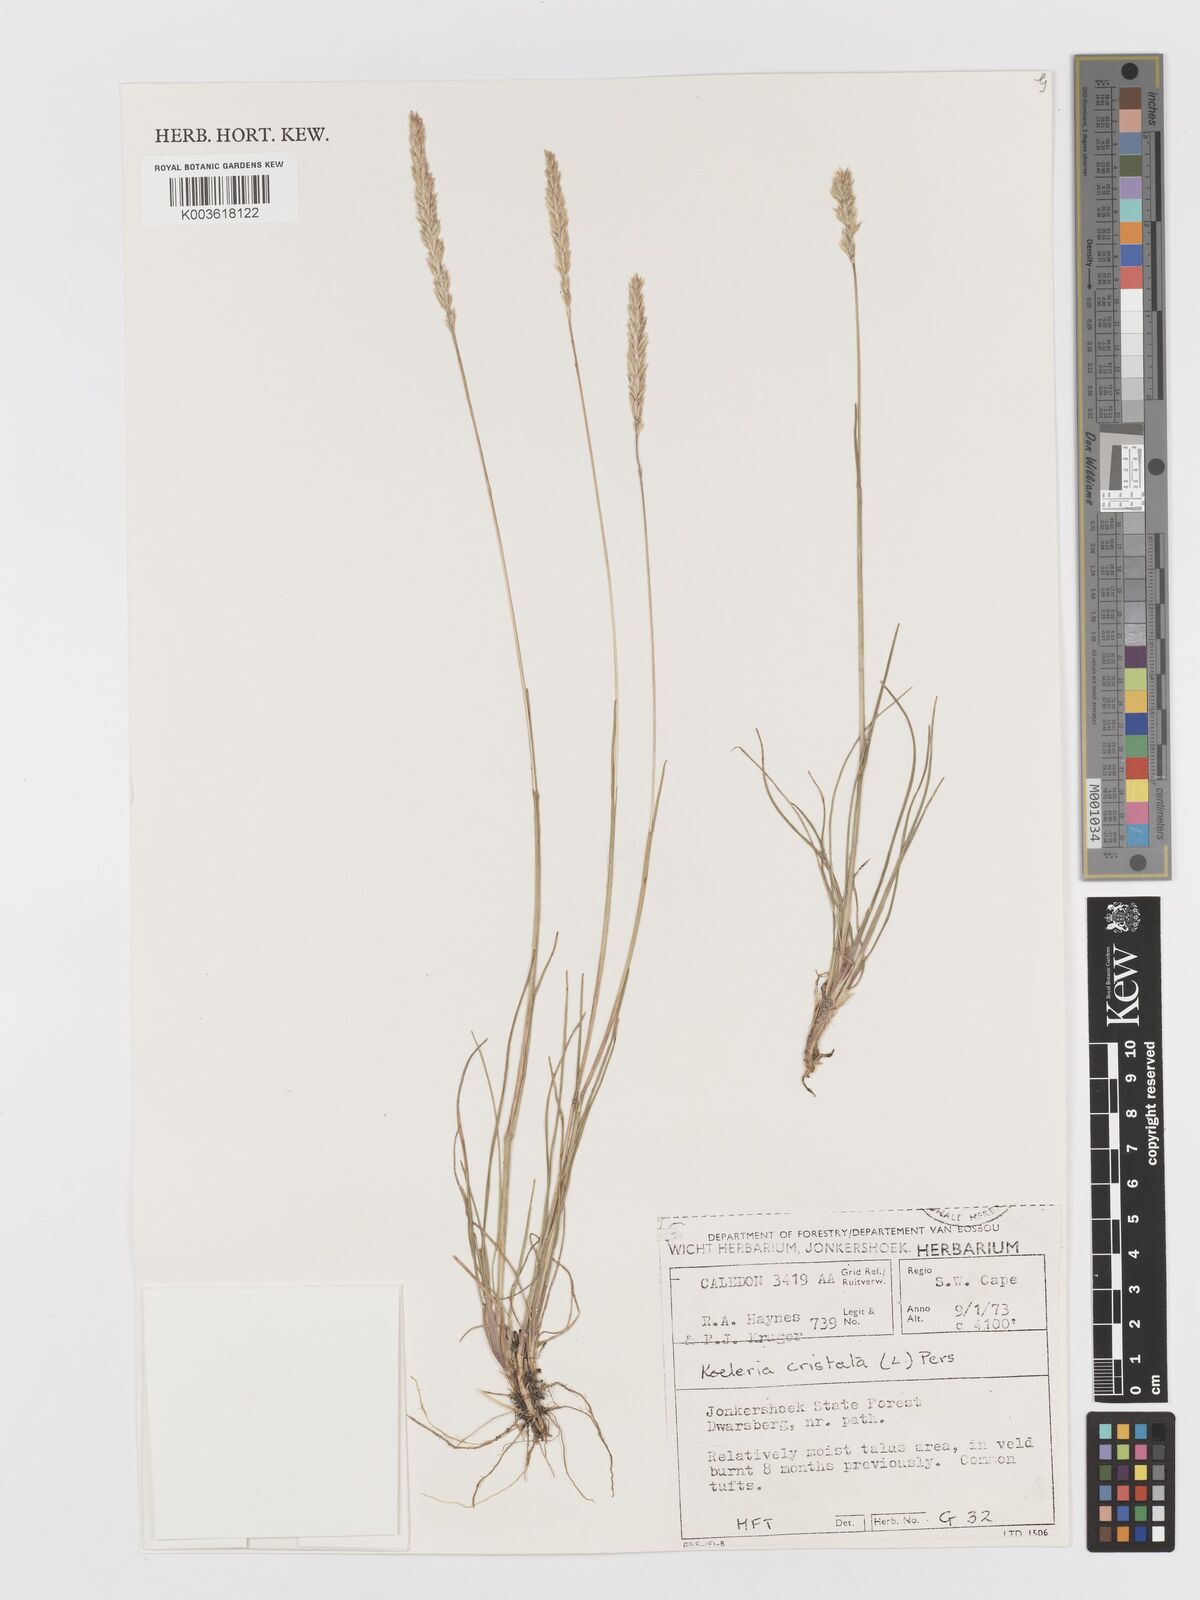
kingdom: Plantae
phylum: Tracheophyta
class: Liliopsida
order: Poales
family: Poaceae
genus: Koeleria
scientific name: Koeleria capensis
